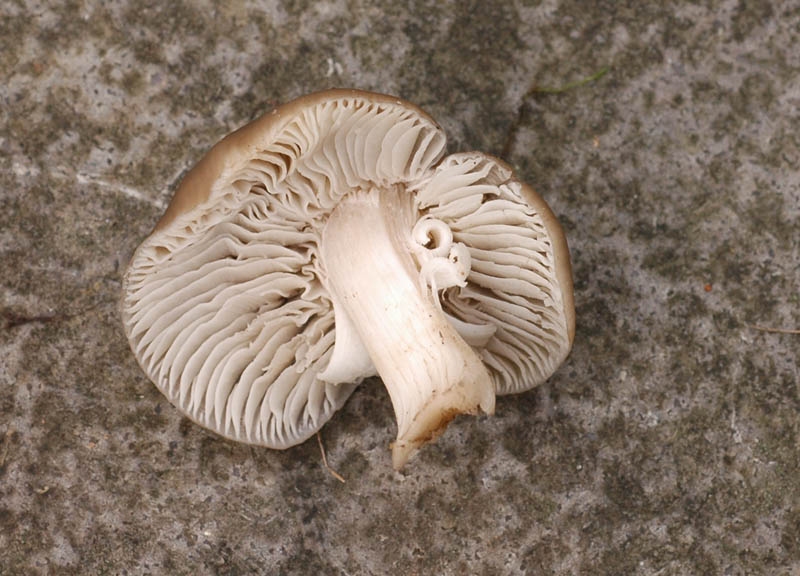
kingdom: Fungi
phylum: Basidiomycota
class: Agaricomycetes
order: Agaricales
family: Hygrophoraceae
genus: Cuphophyllus
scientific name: Cuphophyllus fornicatus
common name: gråbrun vokshat
